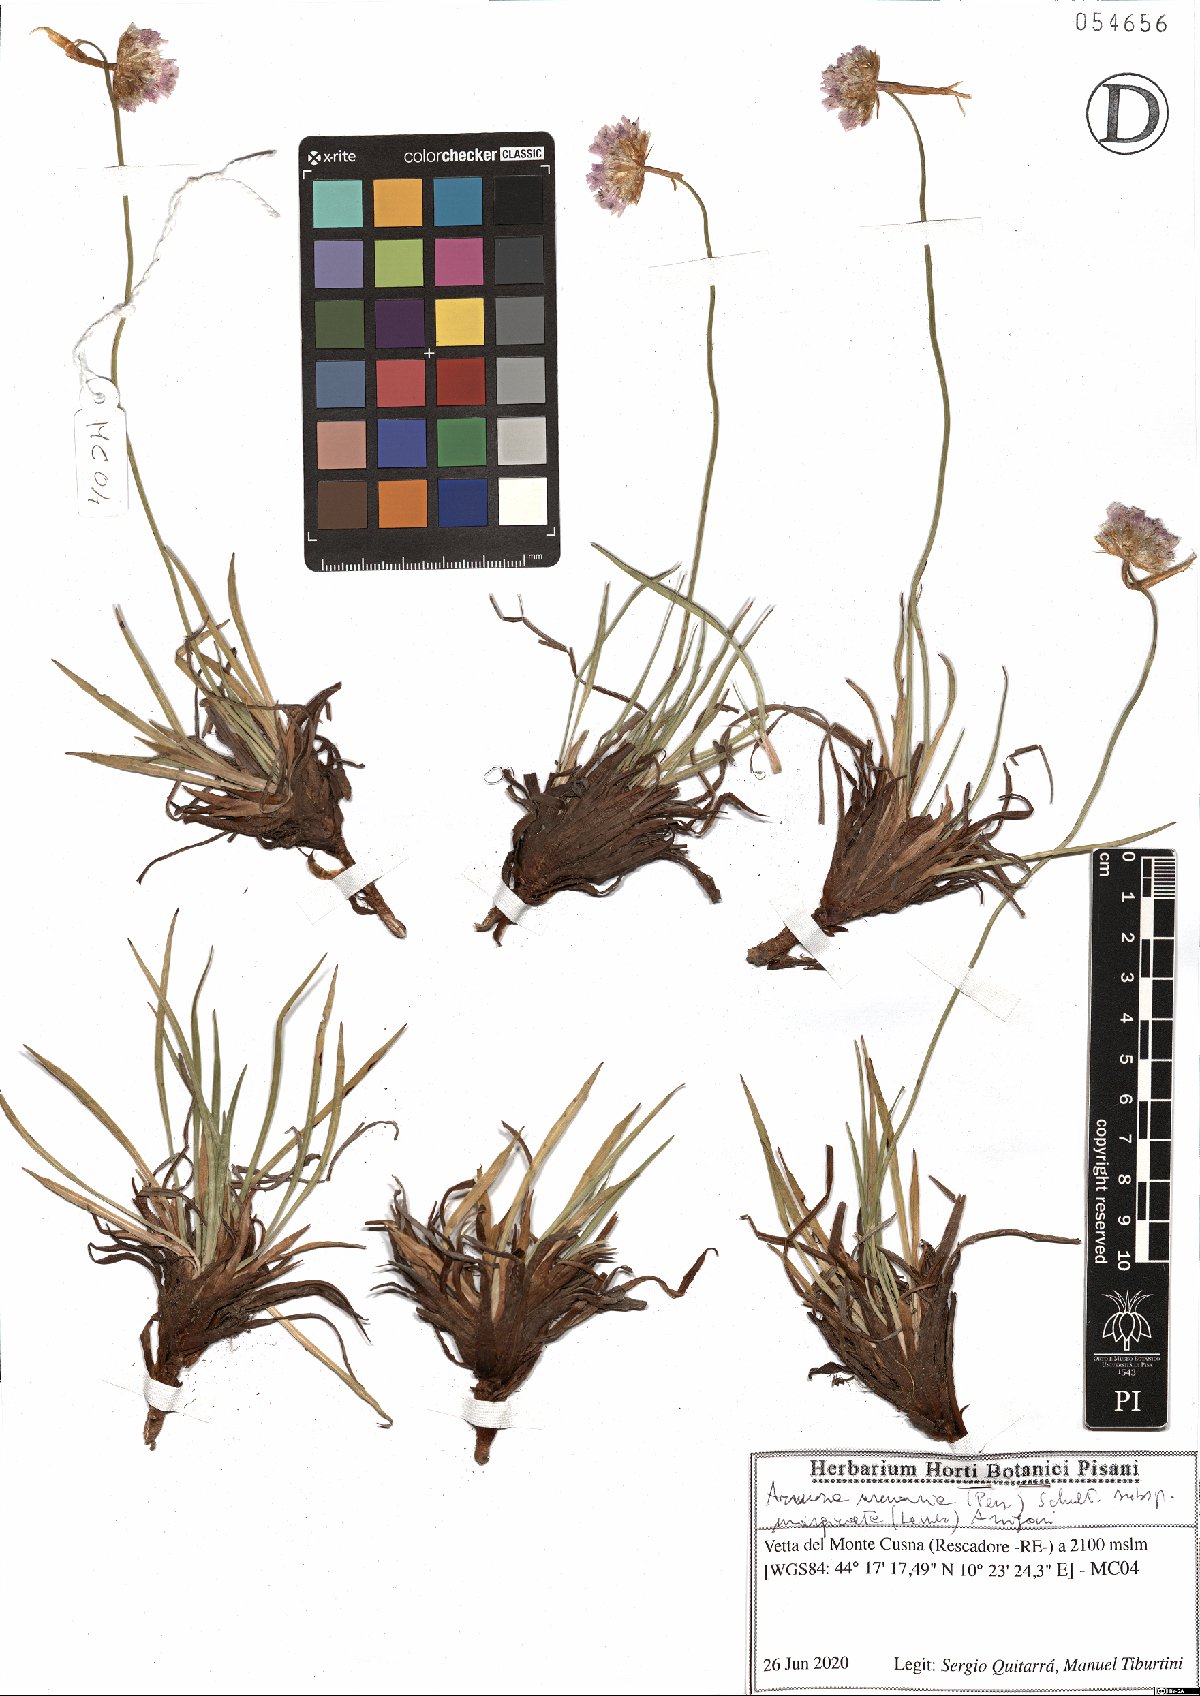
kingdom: Plantae
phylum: Tracheophyta
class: Magnoliopsida
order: Caryophyllales
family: Plumbaginaceae
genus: Armeria
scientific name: Armeria arenaria
